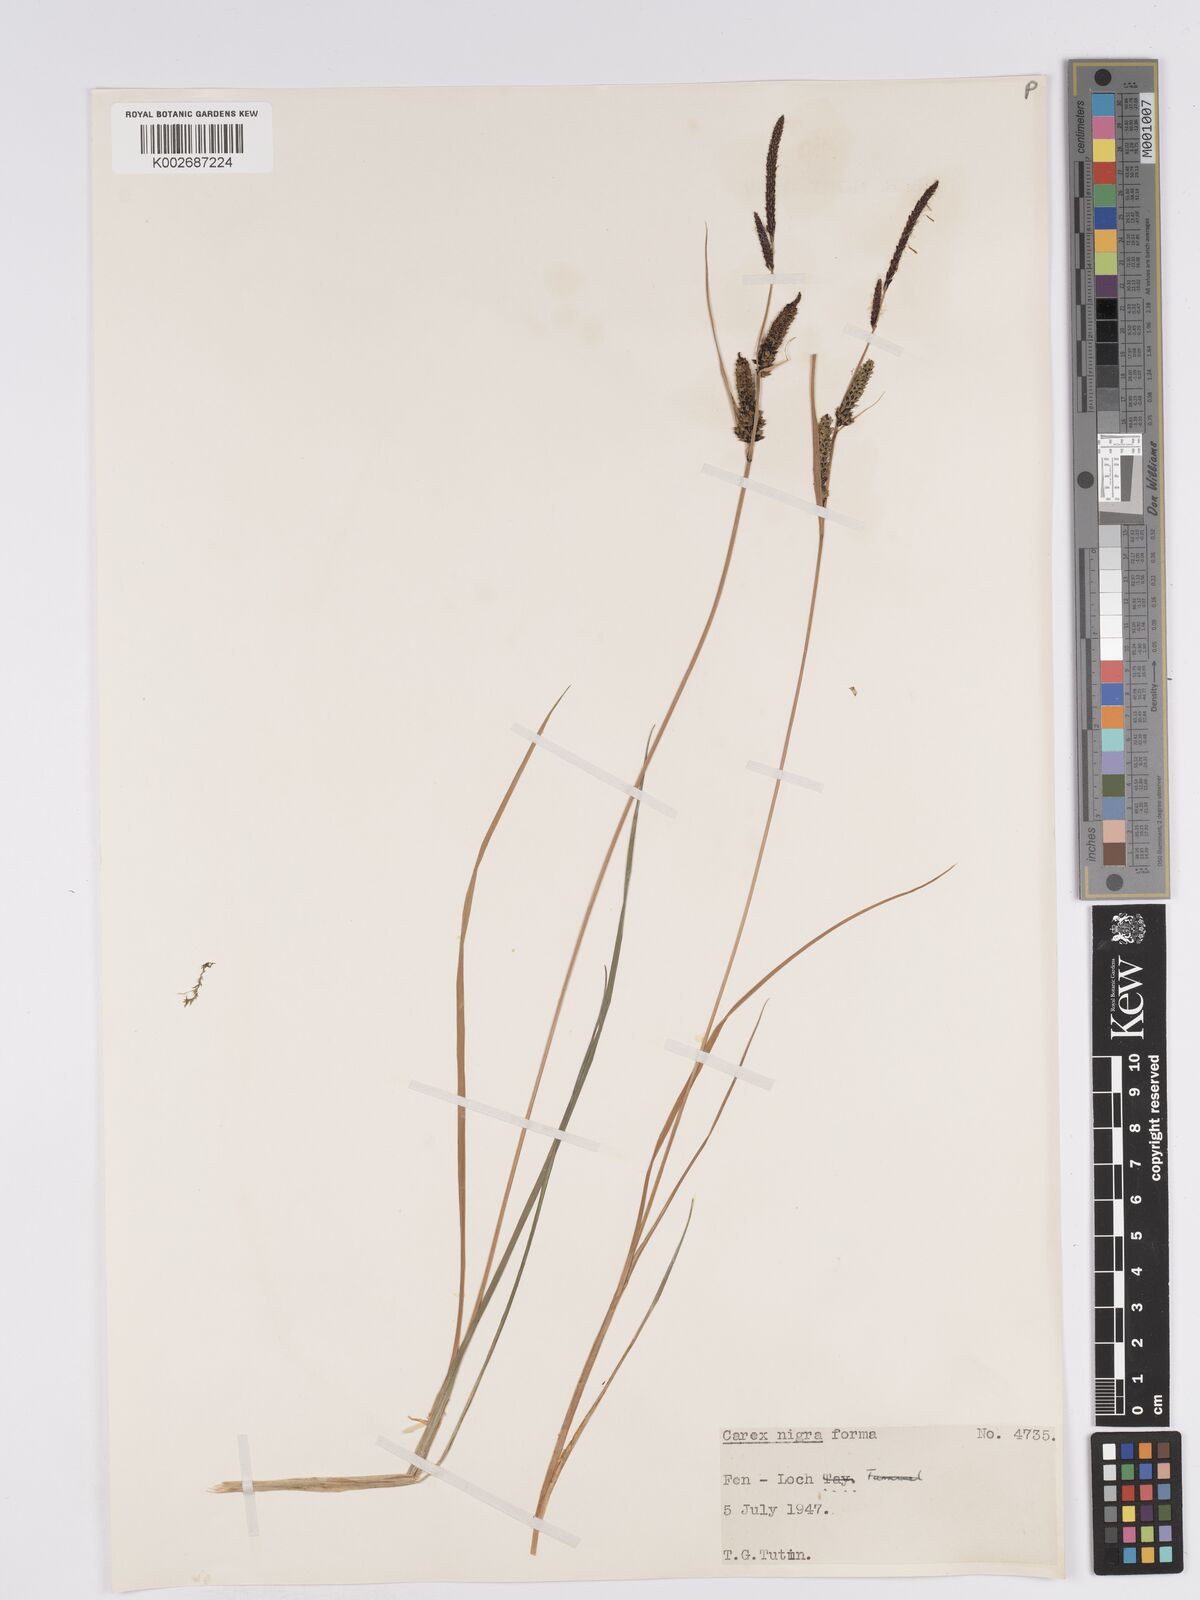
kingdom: Plantae
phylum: Tracheophyta
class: Liliopsida
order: Poales
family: Cyperaceae
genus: Carex
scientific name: Carex nigra
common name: Common sedge
